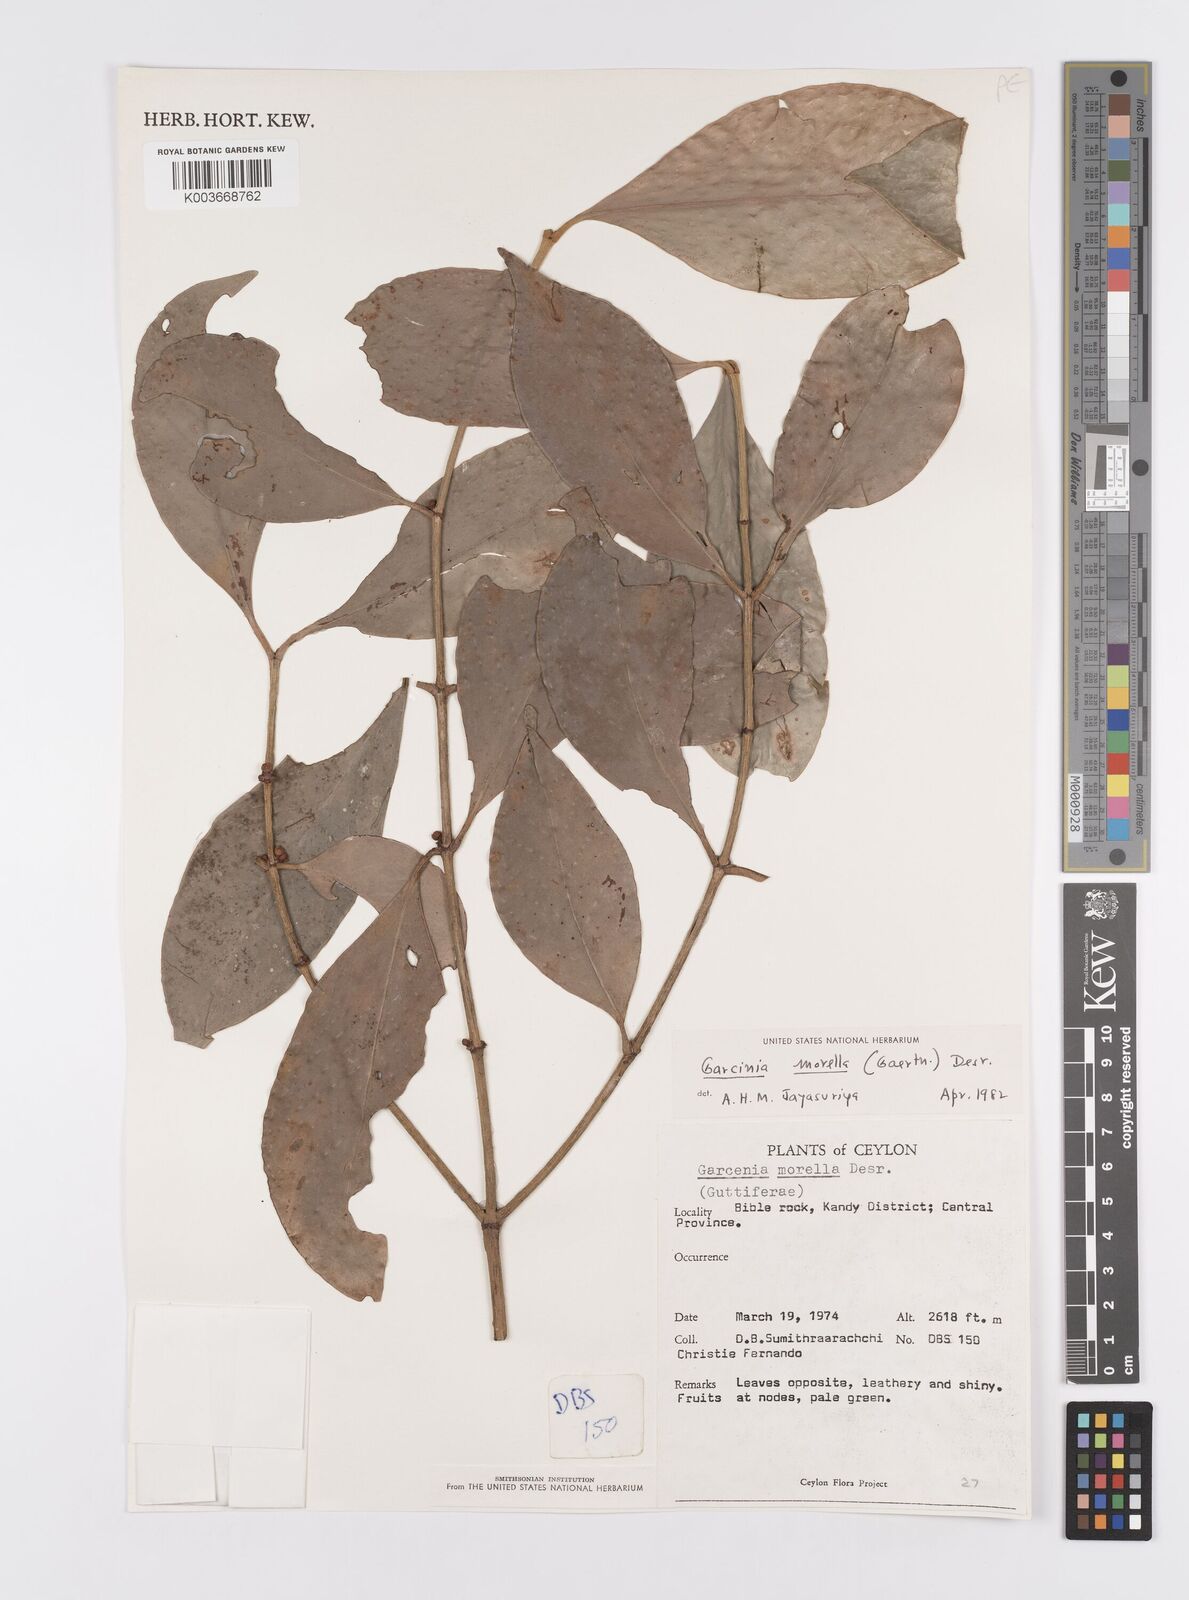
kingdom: Plantae
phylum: Tracheophyta
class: Magnoliopsida
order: Malpighiales
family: Clusiaceae
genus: Garcinia
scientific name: Garcinia morella
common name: Indian gamboge-tree
